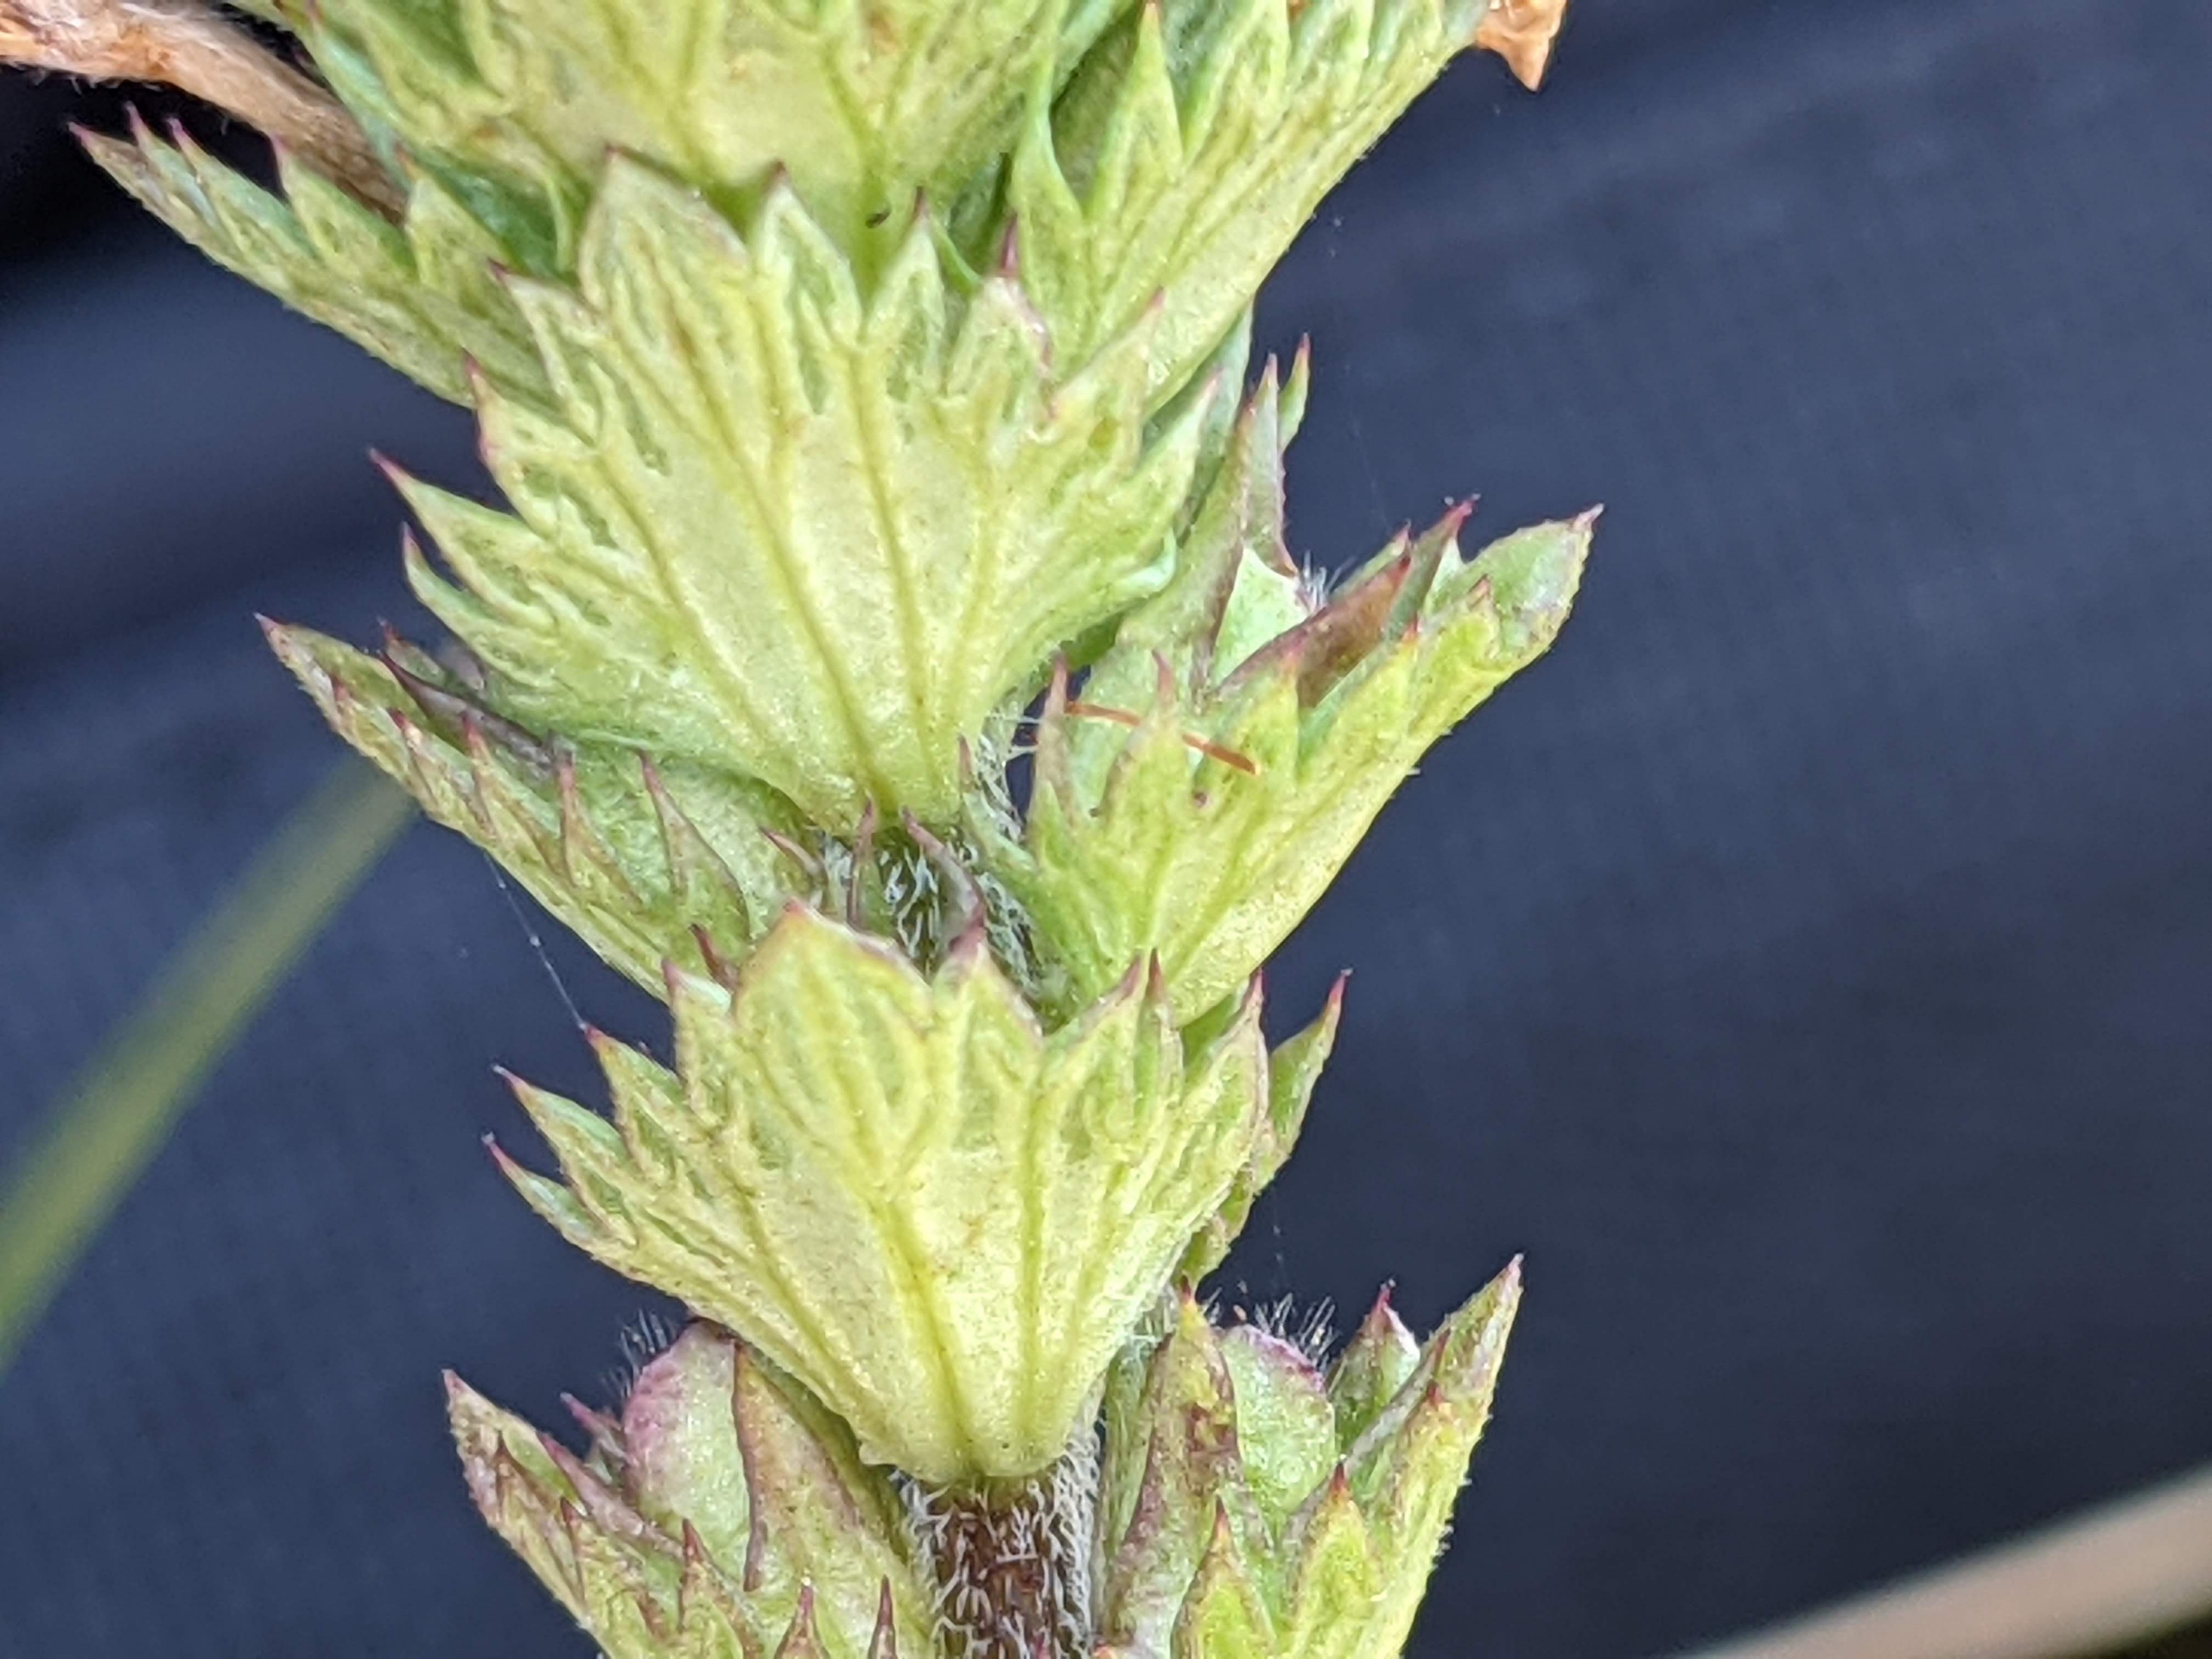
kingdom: Plantae
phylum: Tracheophyta
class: Magnoliopsida
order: Lamiales
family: Orobanchaceae
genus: Euphrasia
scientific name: Euphrasia stricta
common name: Spids øjentrøst
